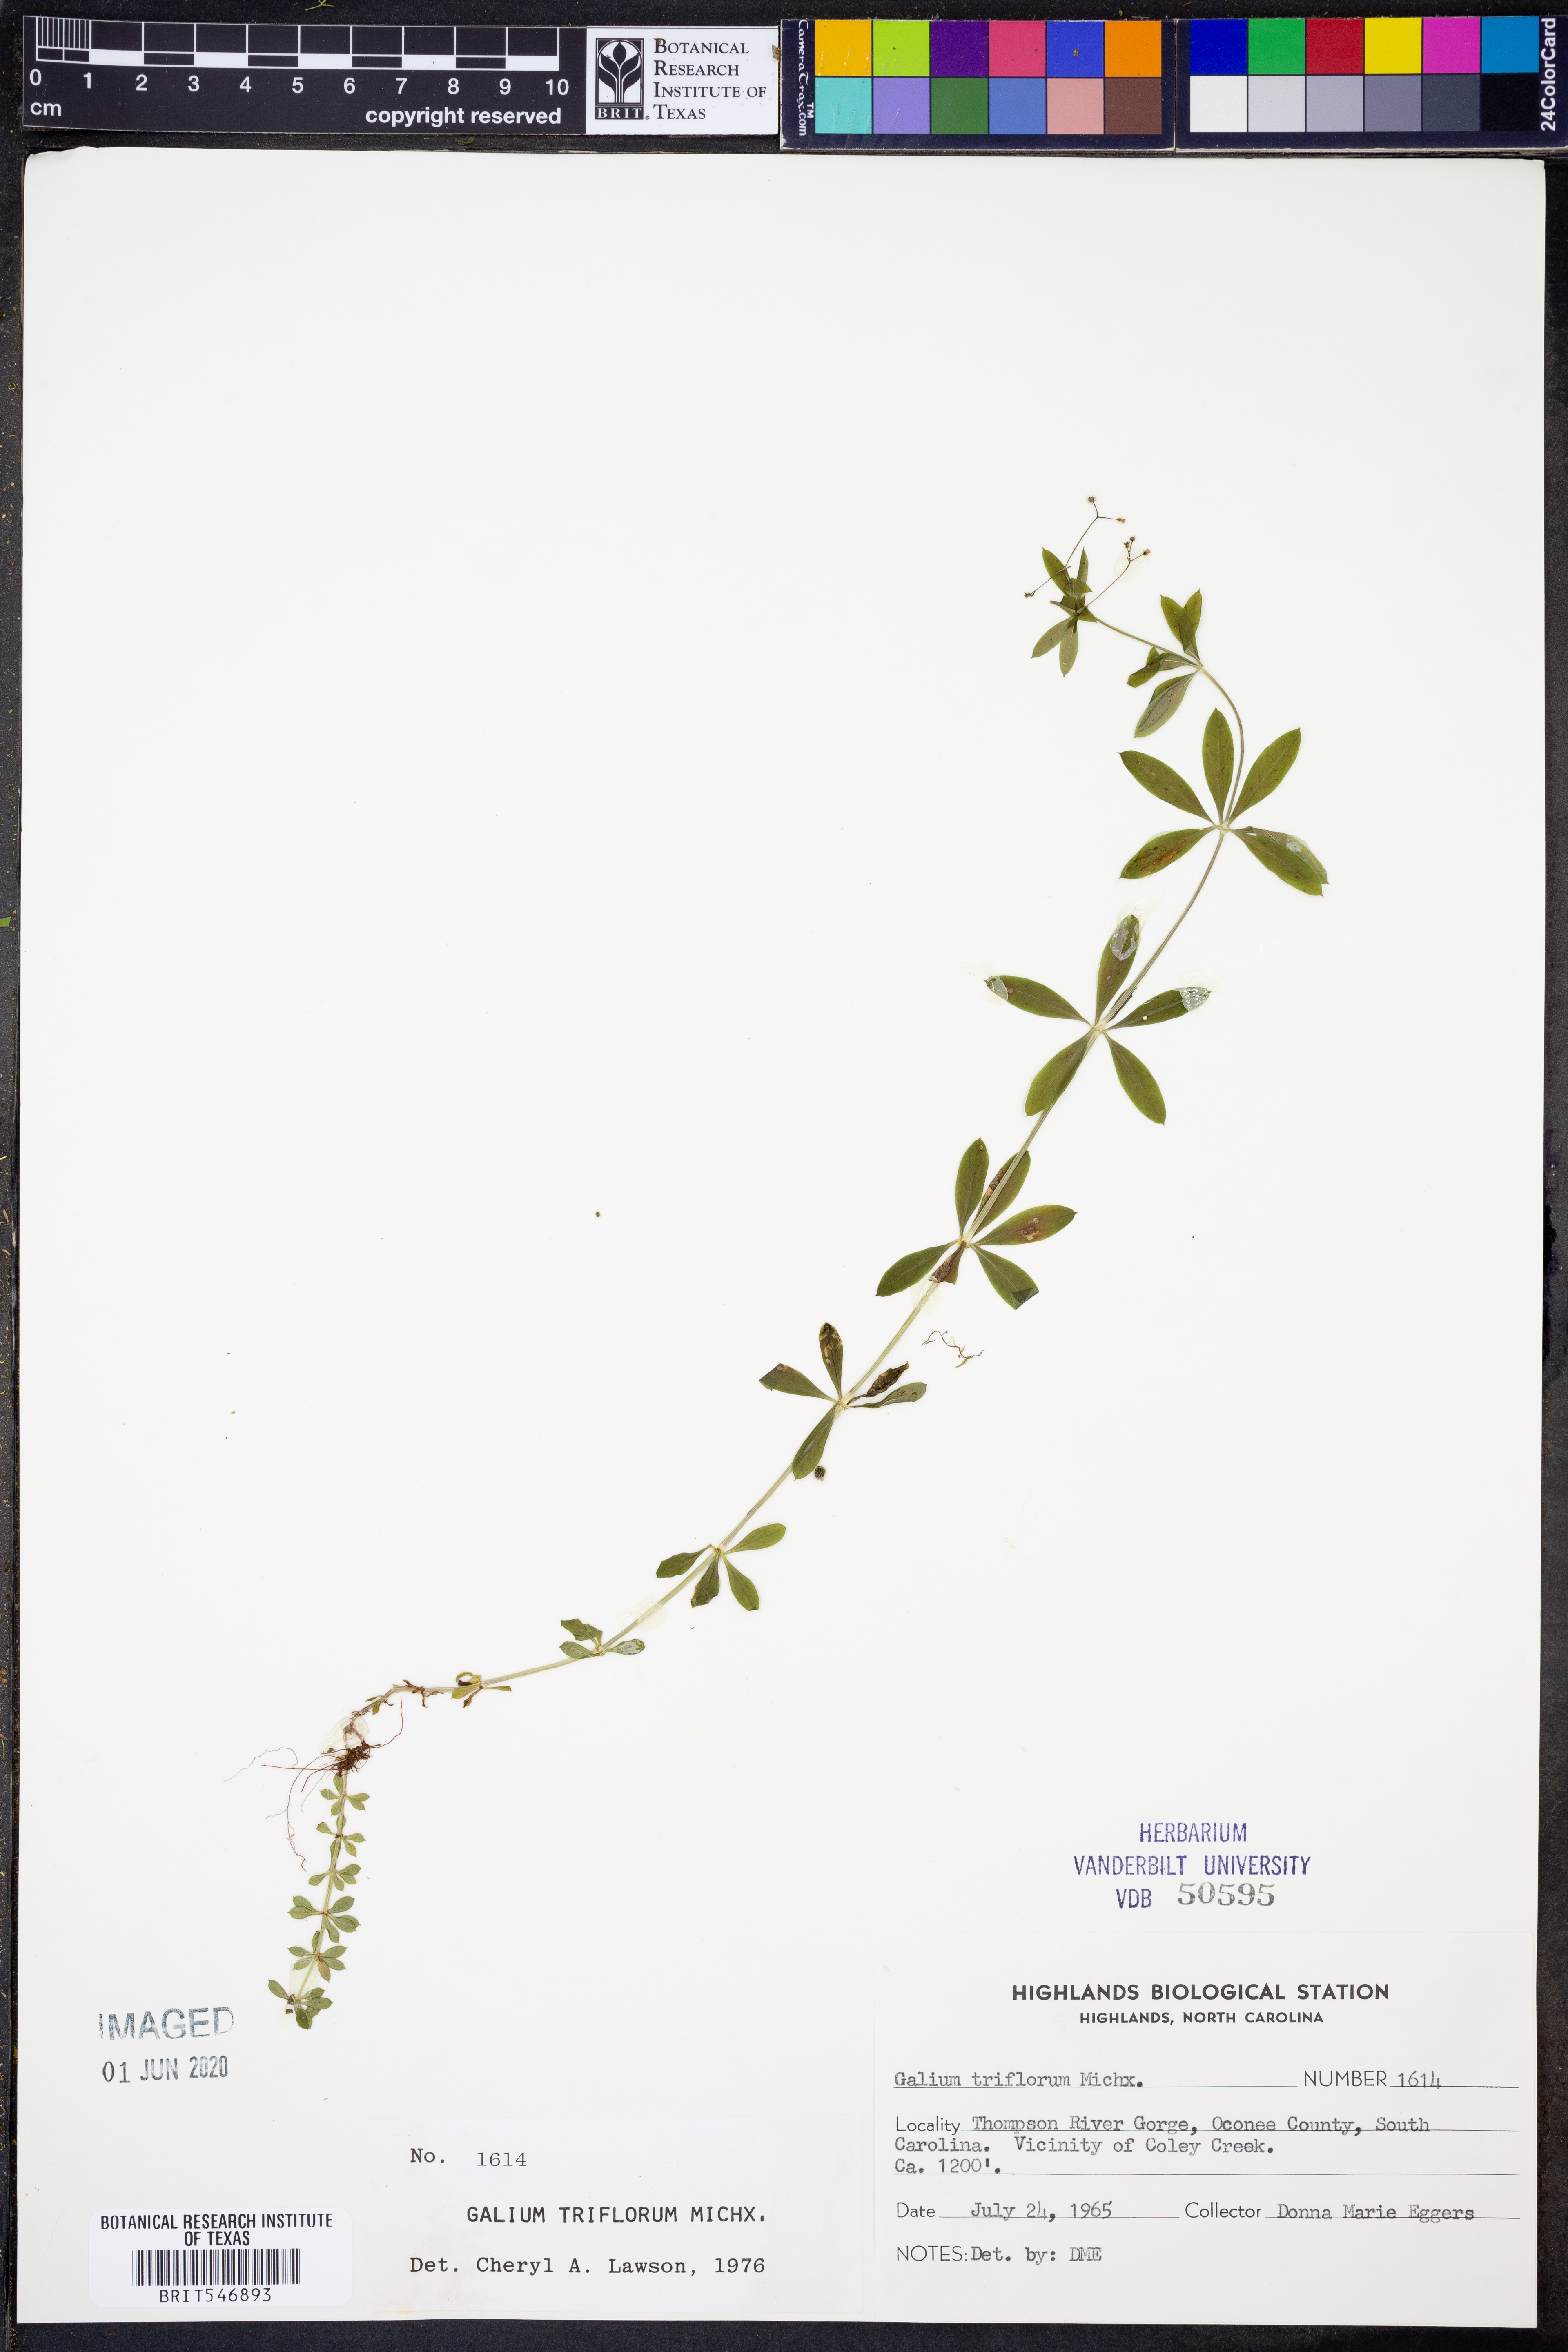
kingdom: Plantae
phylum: Tracheophyta
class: Magnoliopsida
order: Gentianales
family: Rubiaceae
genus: Galium
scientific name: Galium triflorum
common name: Fragrant bedstraw
